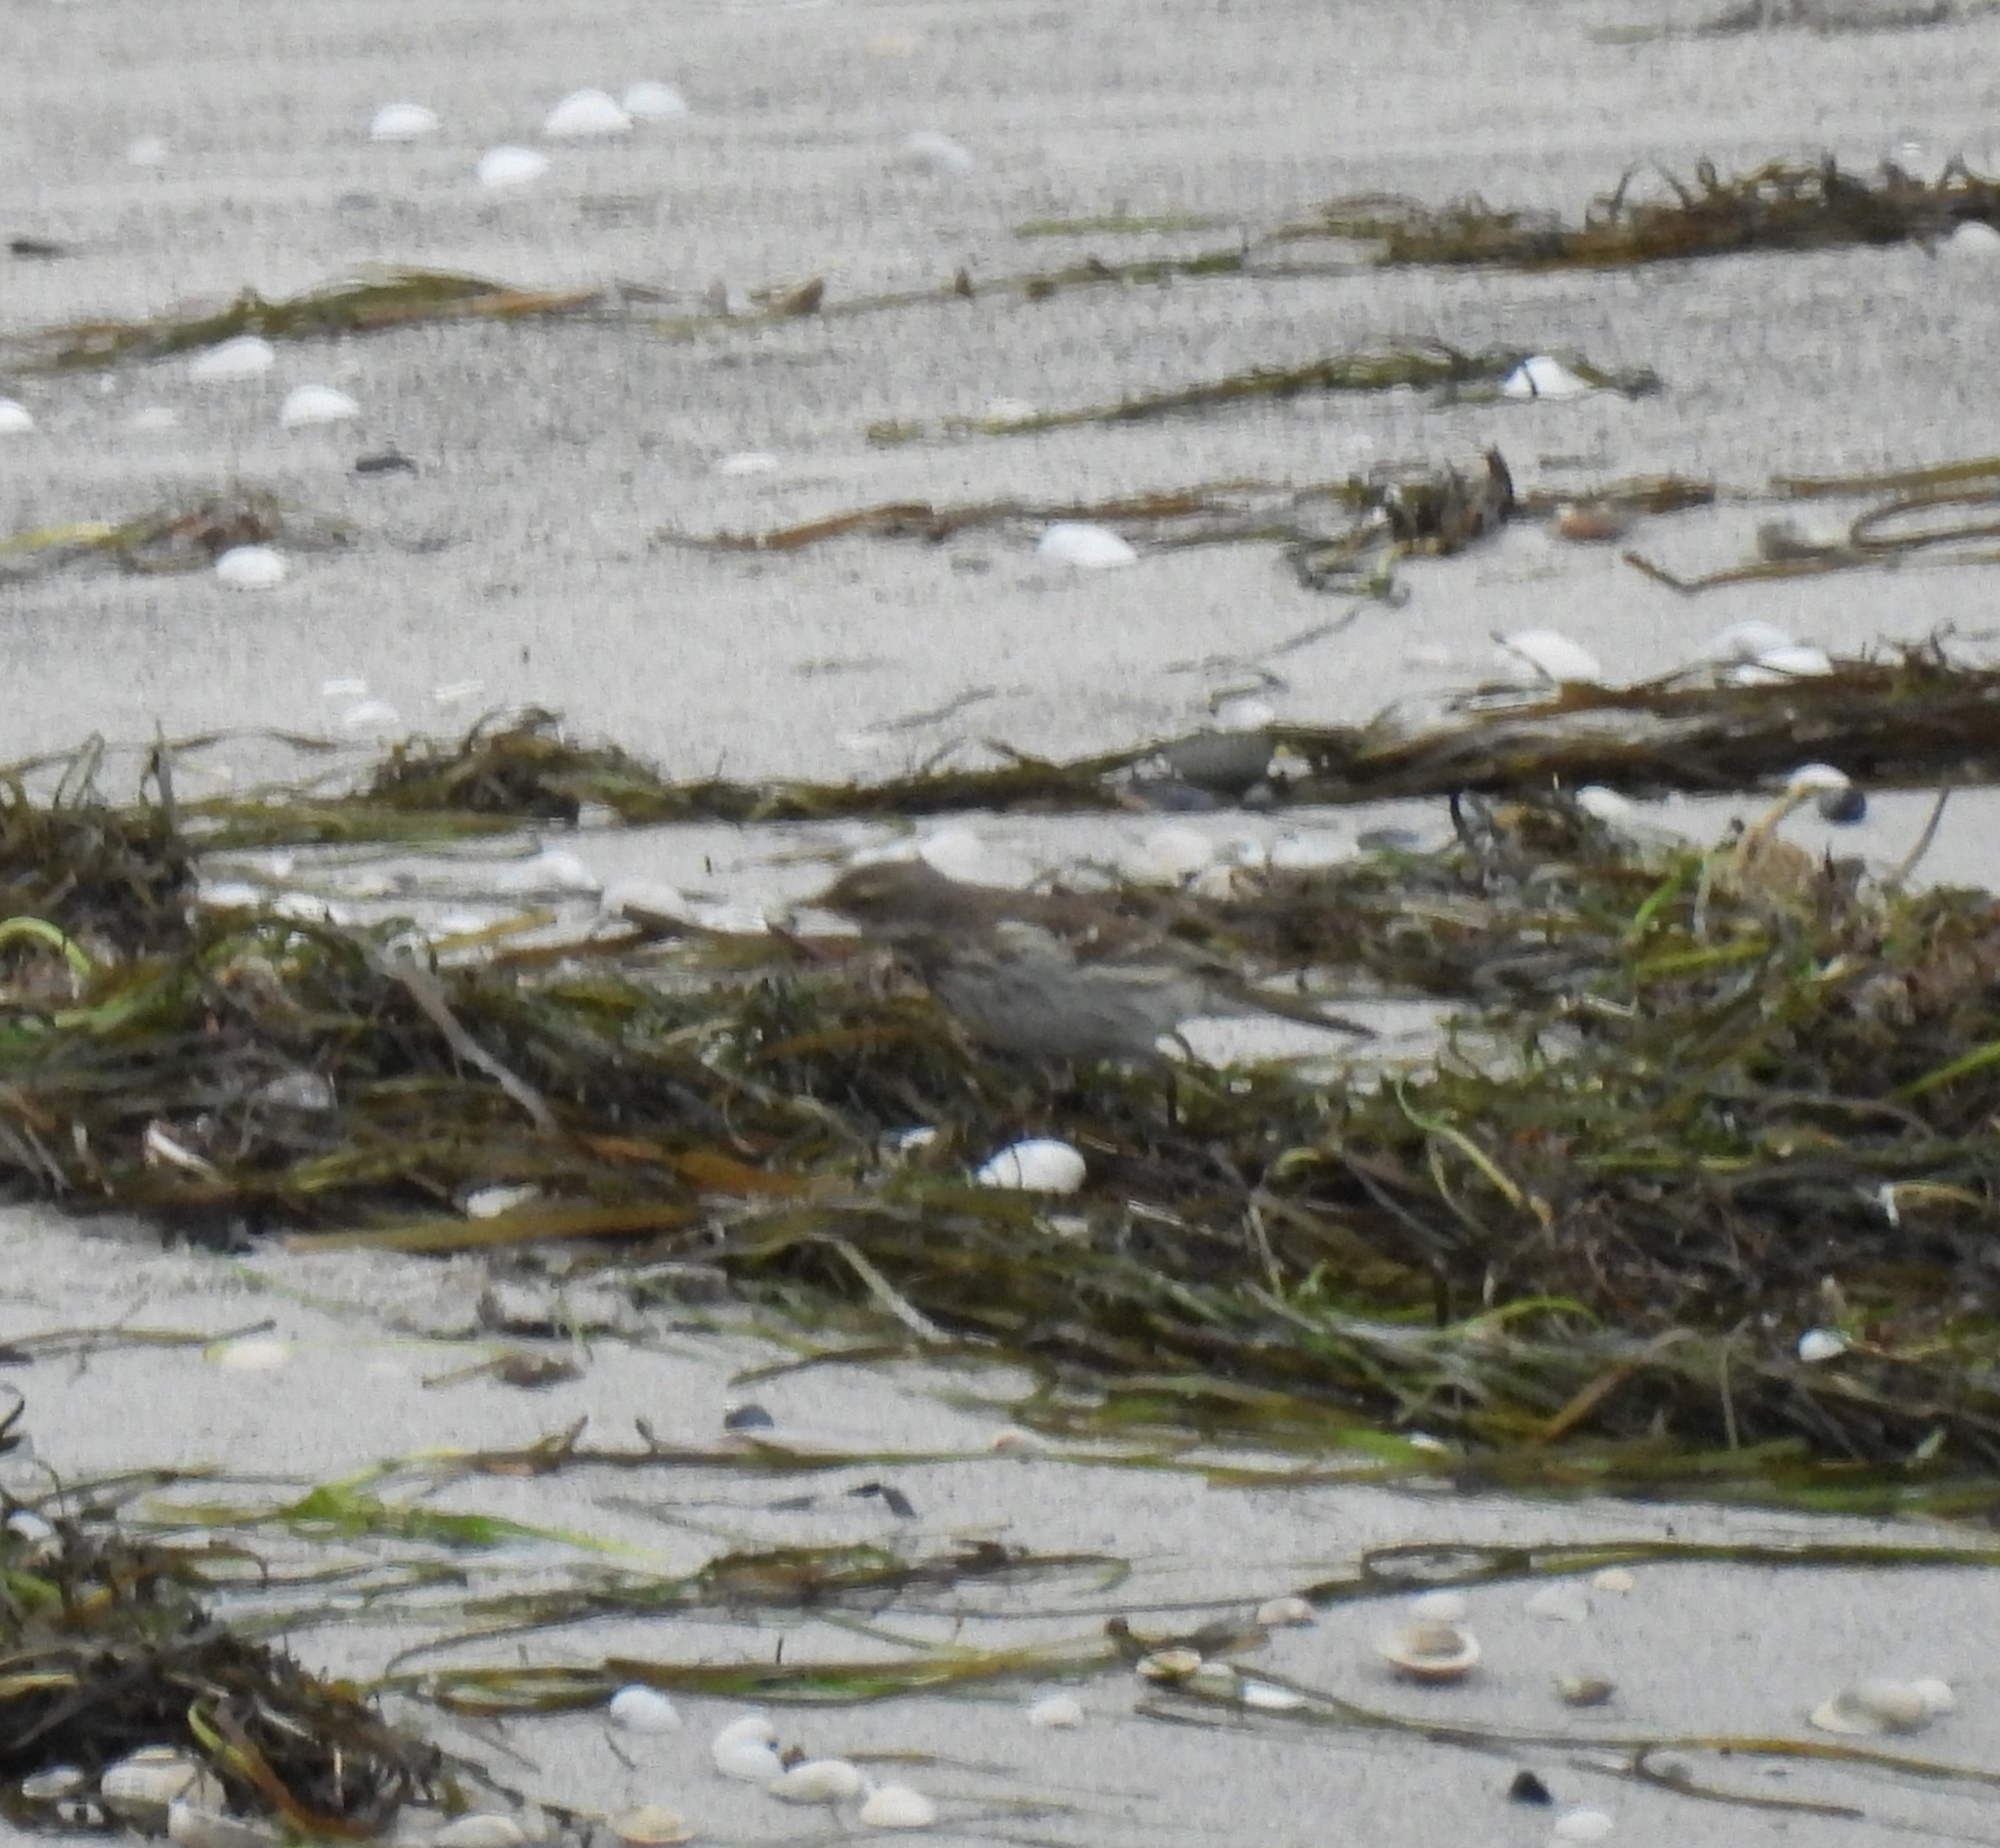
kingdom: Animalia
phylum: Chordata
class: Aves
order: Passeriformes
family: Motacillidae
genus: Anthus
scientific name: Anthus spinoletta
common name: Bjergpiber
